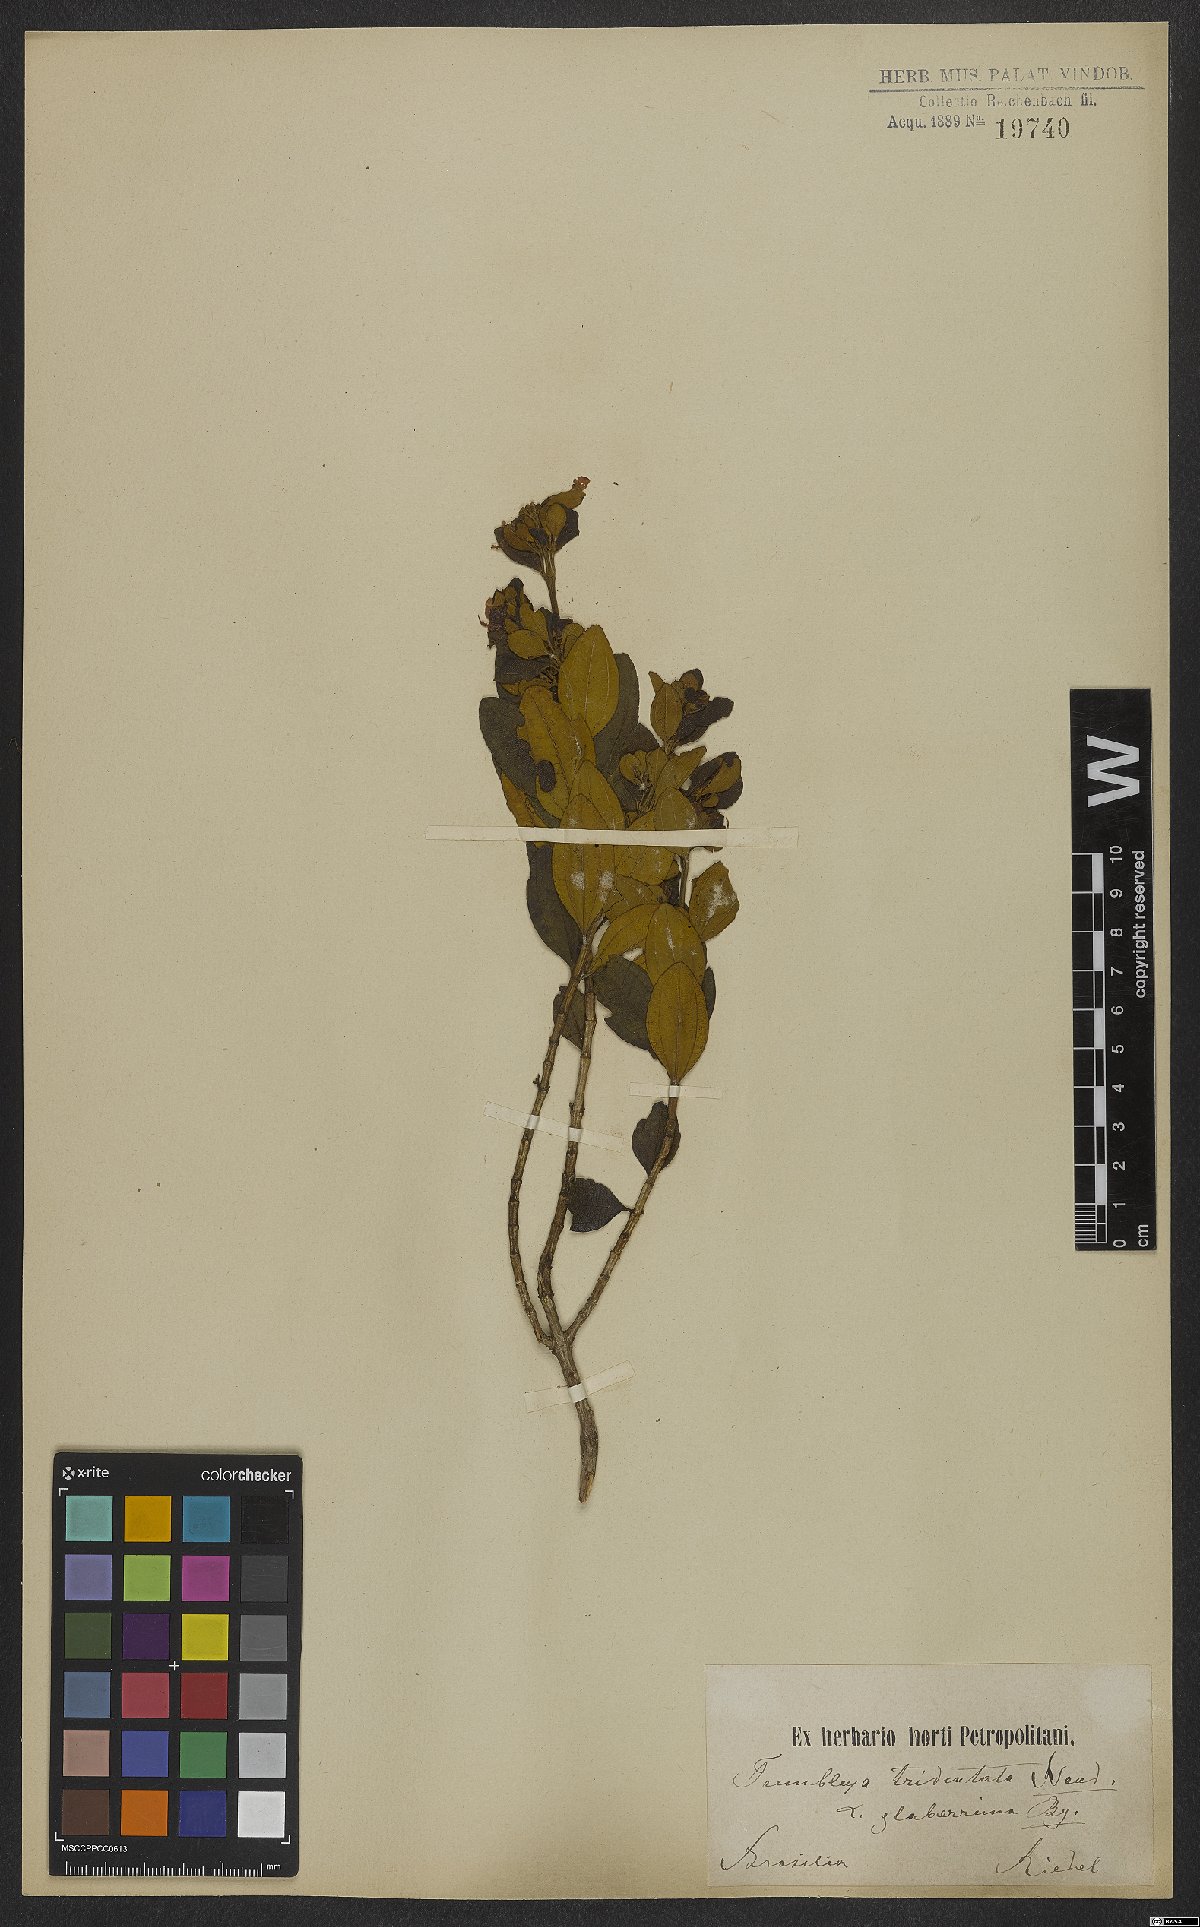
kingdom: Plantae
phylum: Tracheophyta
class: Magnoliopsida
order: Myrtales
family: Melastomataceae
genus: Microlicia
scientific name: Microlicia tridentata
